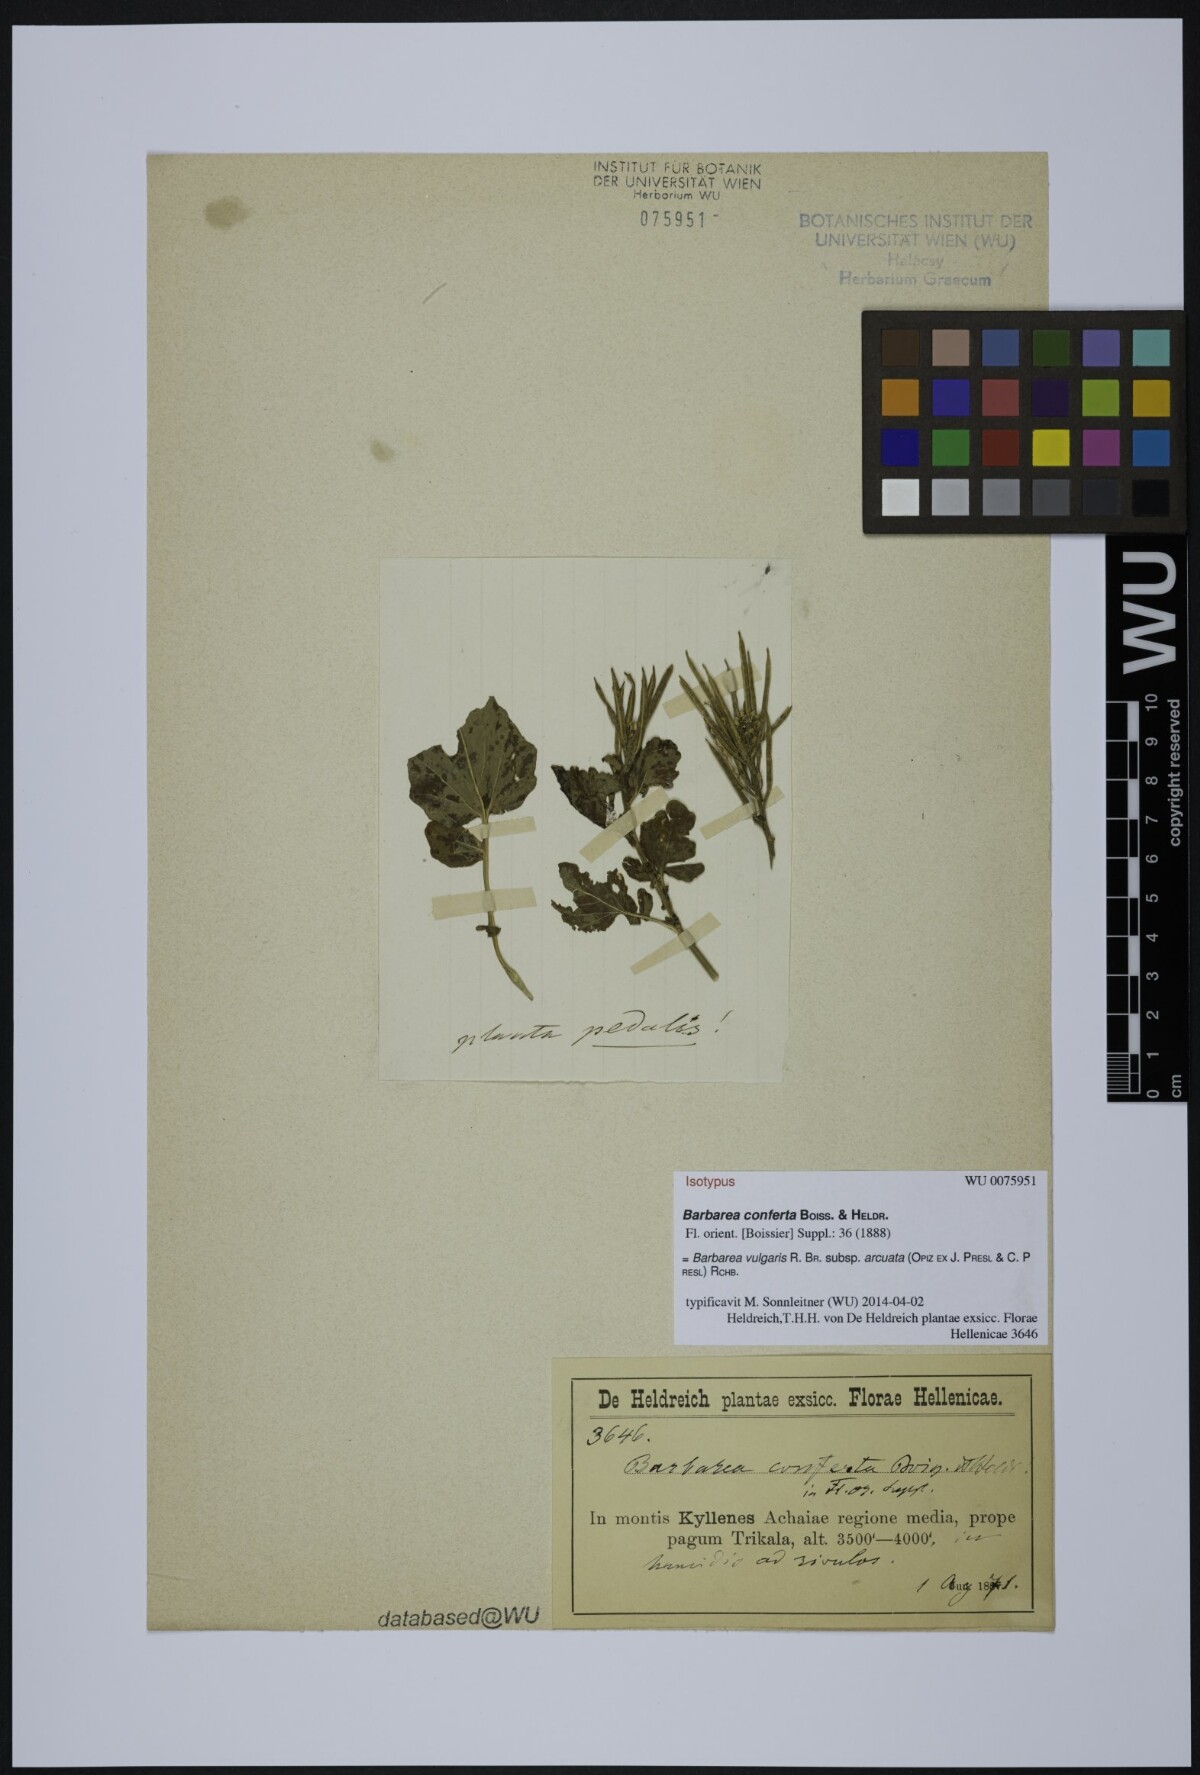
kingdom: Plantae
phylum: Tracheophyta
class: Magnoliopsida
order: Brassicales
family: Brassicaceae
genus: Barbarea
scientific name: Barbarea conferta
